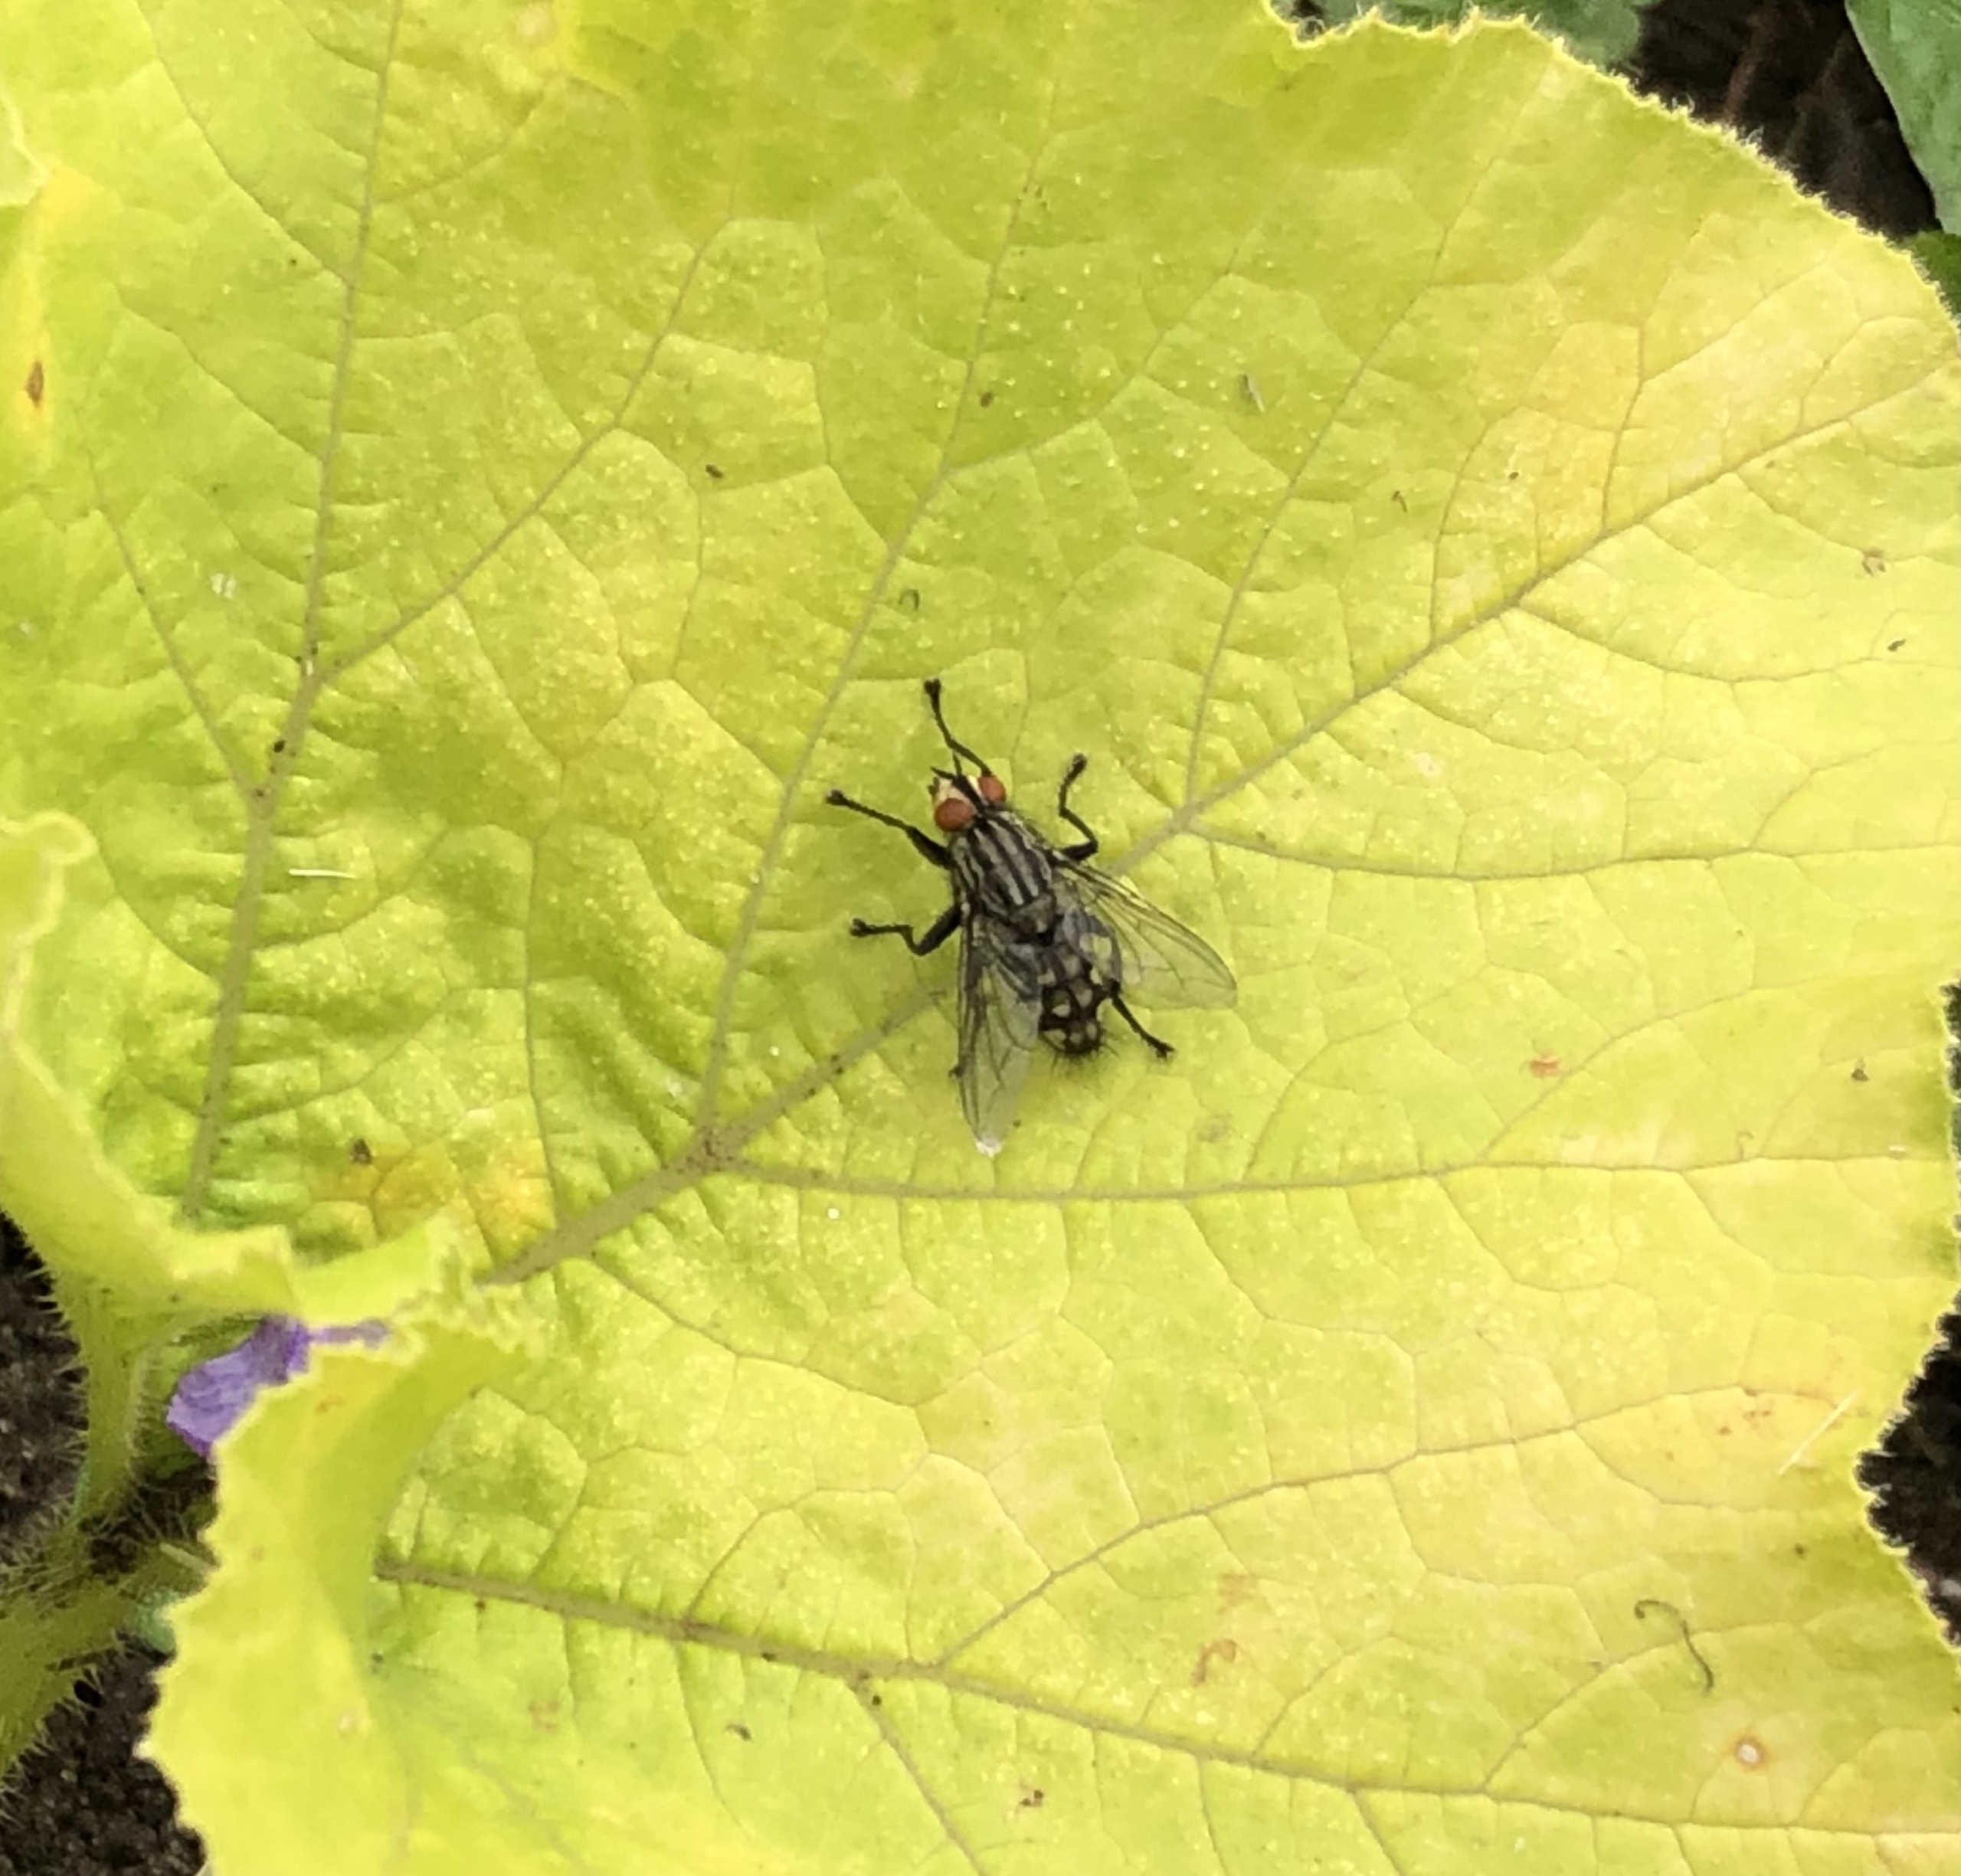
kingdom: Animalia
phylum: Arthropoda
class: Insecta
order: Diptera
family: Sarcophagidae
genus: Sarcophaga
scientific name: Sarcophaga
